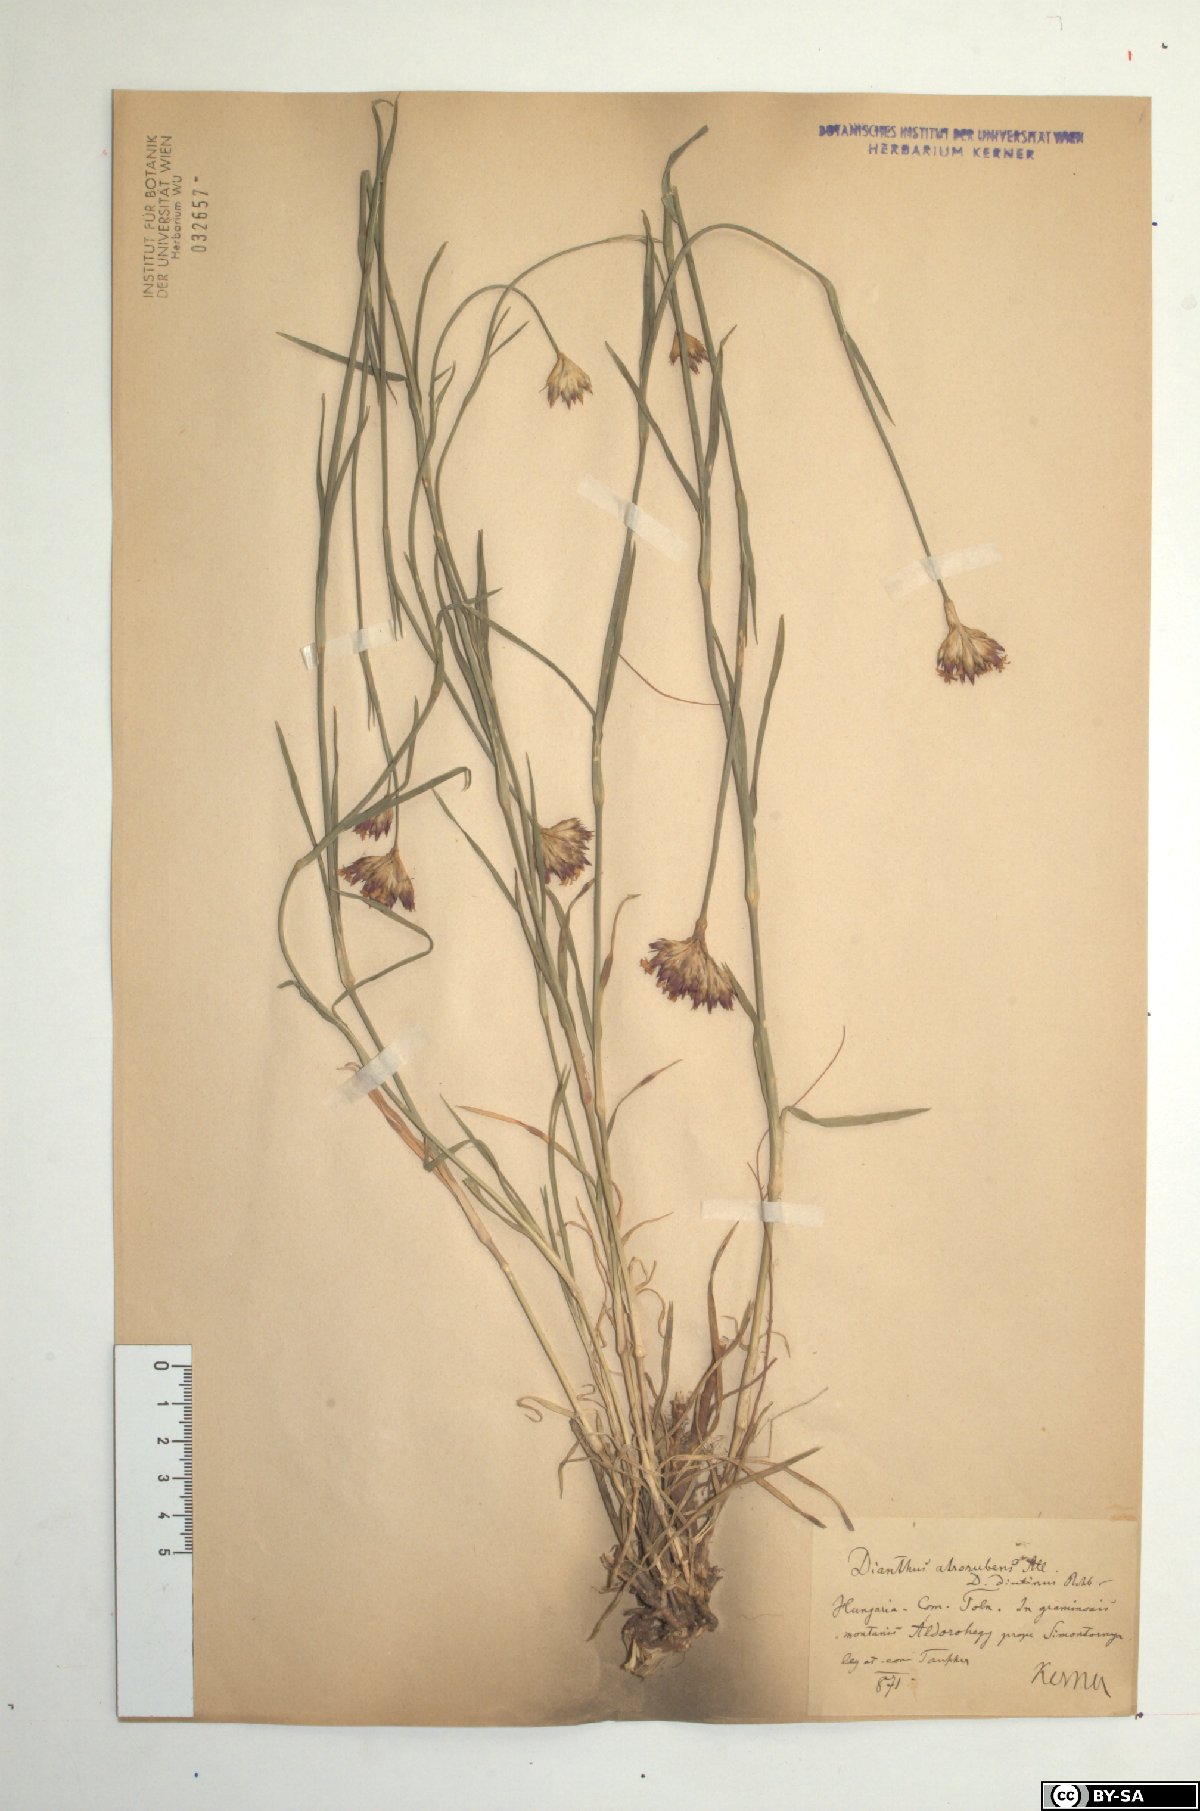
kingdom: Plantae
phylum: Tracheophyta
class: Magnoliopsida
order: Caryophyllales
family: Caryophyllaceae
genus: Dianthus
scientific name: Dianthus carthusianorum
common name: Carthusian pink
